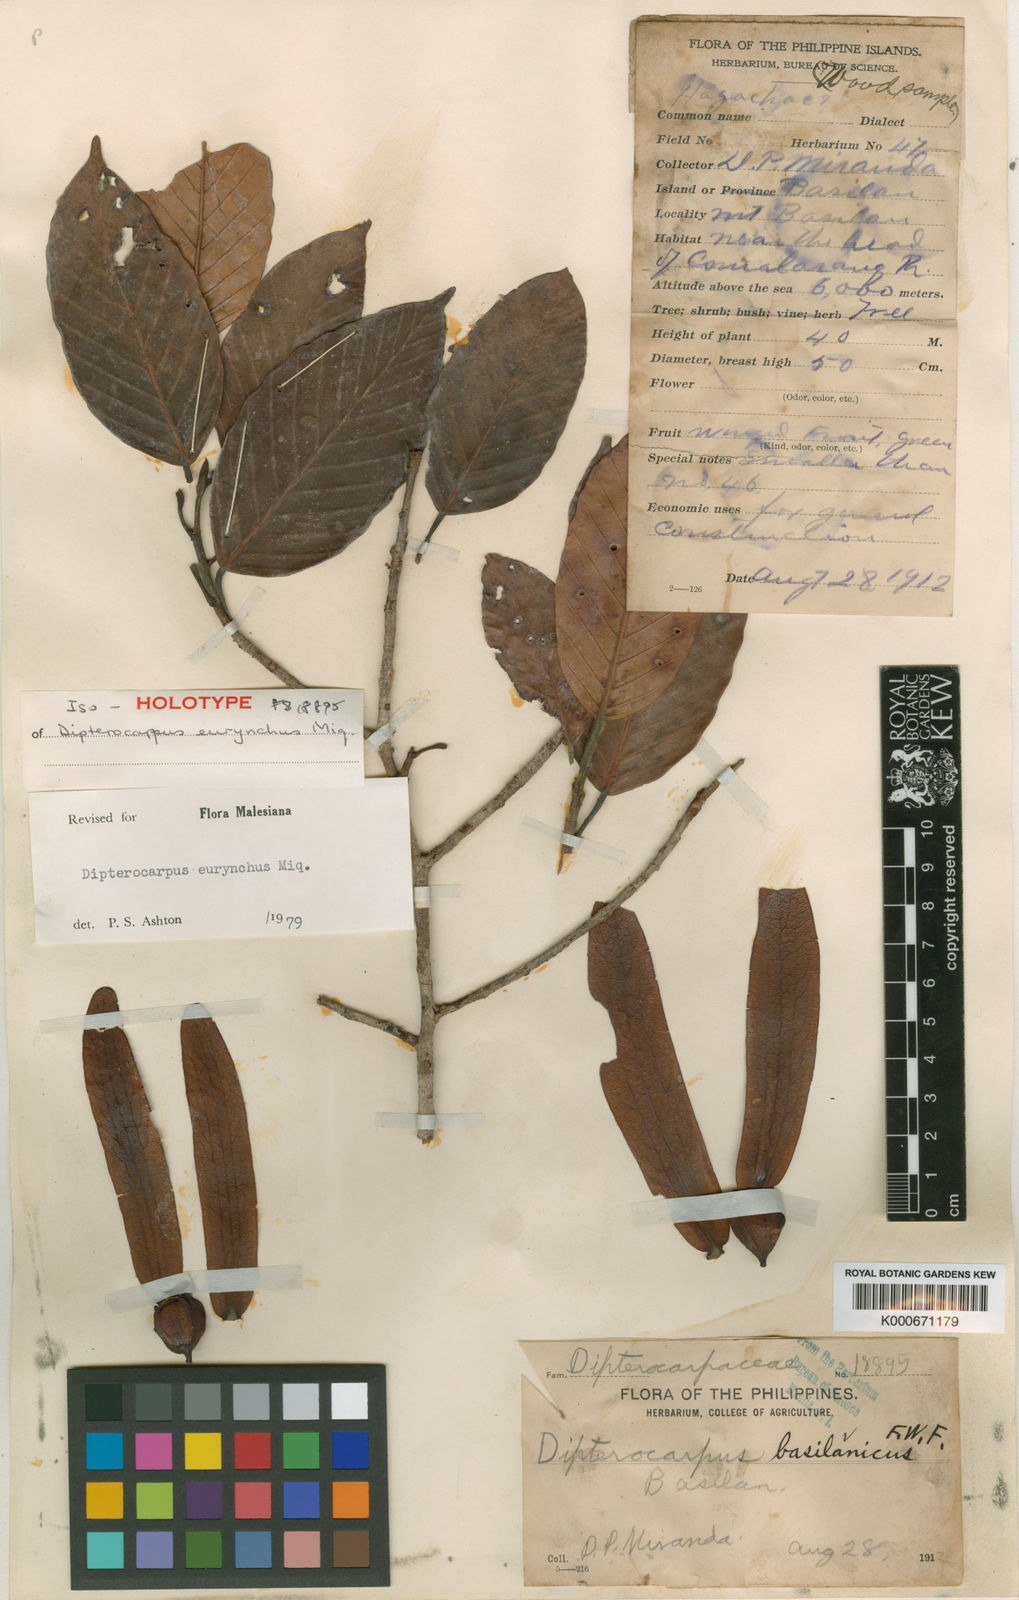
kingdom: Plantae
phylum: Tracheophyta
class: Magnoliopsida
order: Malvales
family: Dipterocarpaceae
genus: Dipterocarpus
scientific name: Dipterocarpus eurhynchus
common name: Keruing
